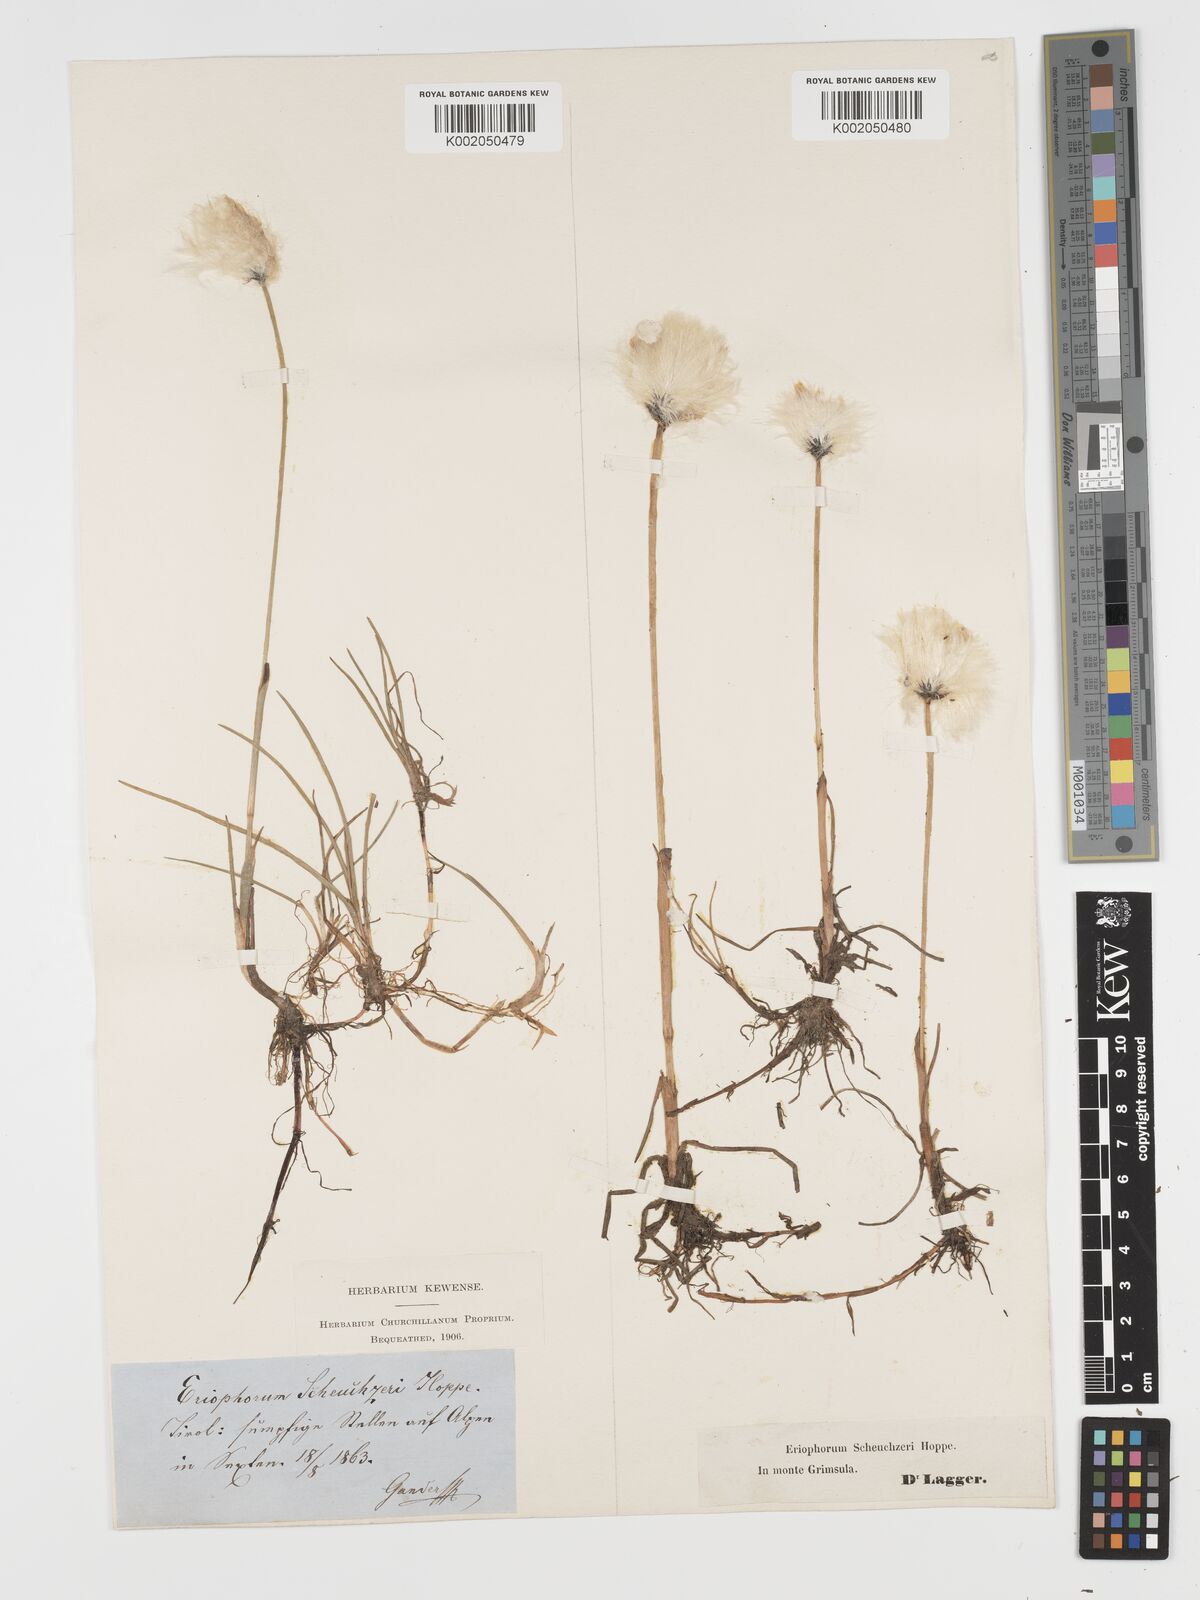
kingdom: Plantae
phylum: Tracheophyta
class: Liliopsida
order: Poales
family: Cyperaceae
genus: Eriophorum
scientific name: Eriophorum scheuchzeri
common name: Scheuchzer's cottongrass
